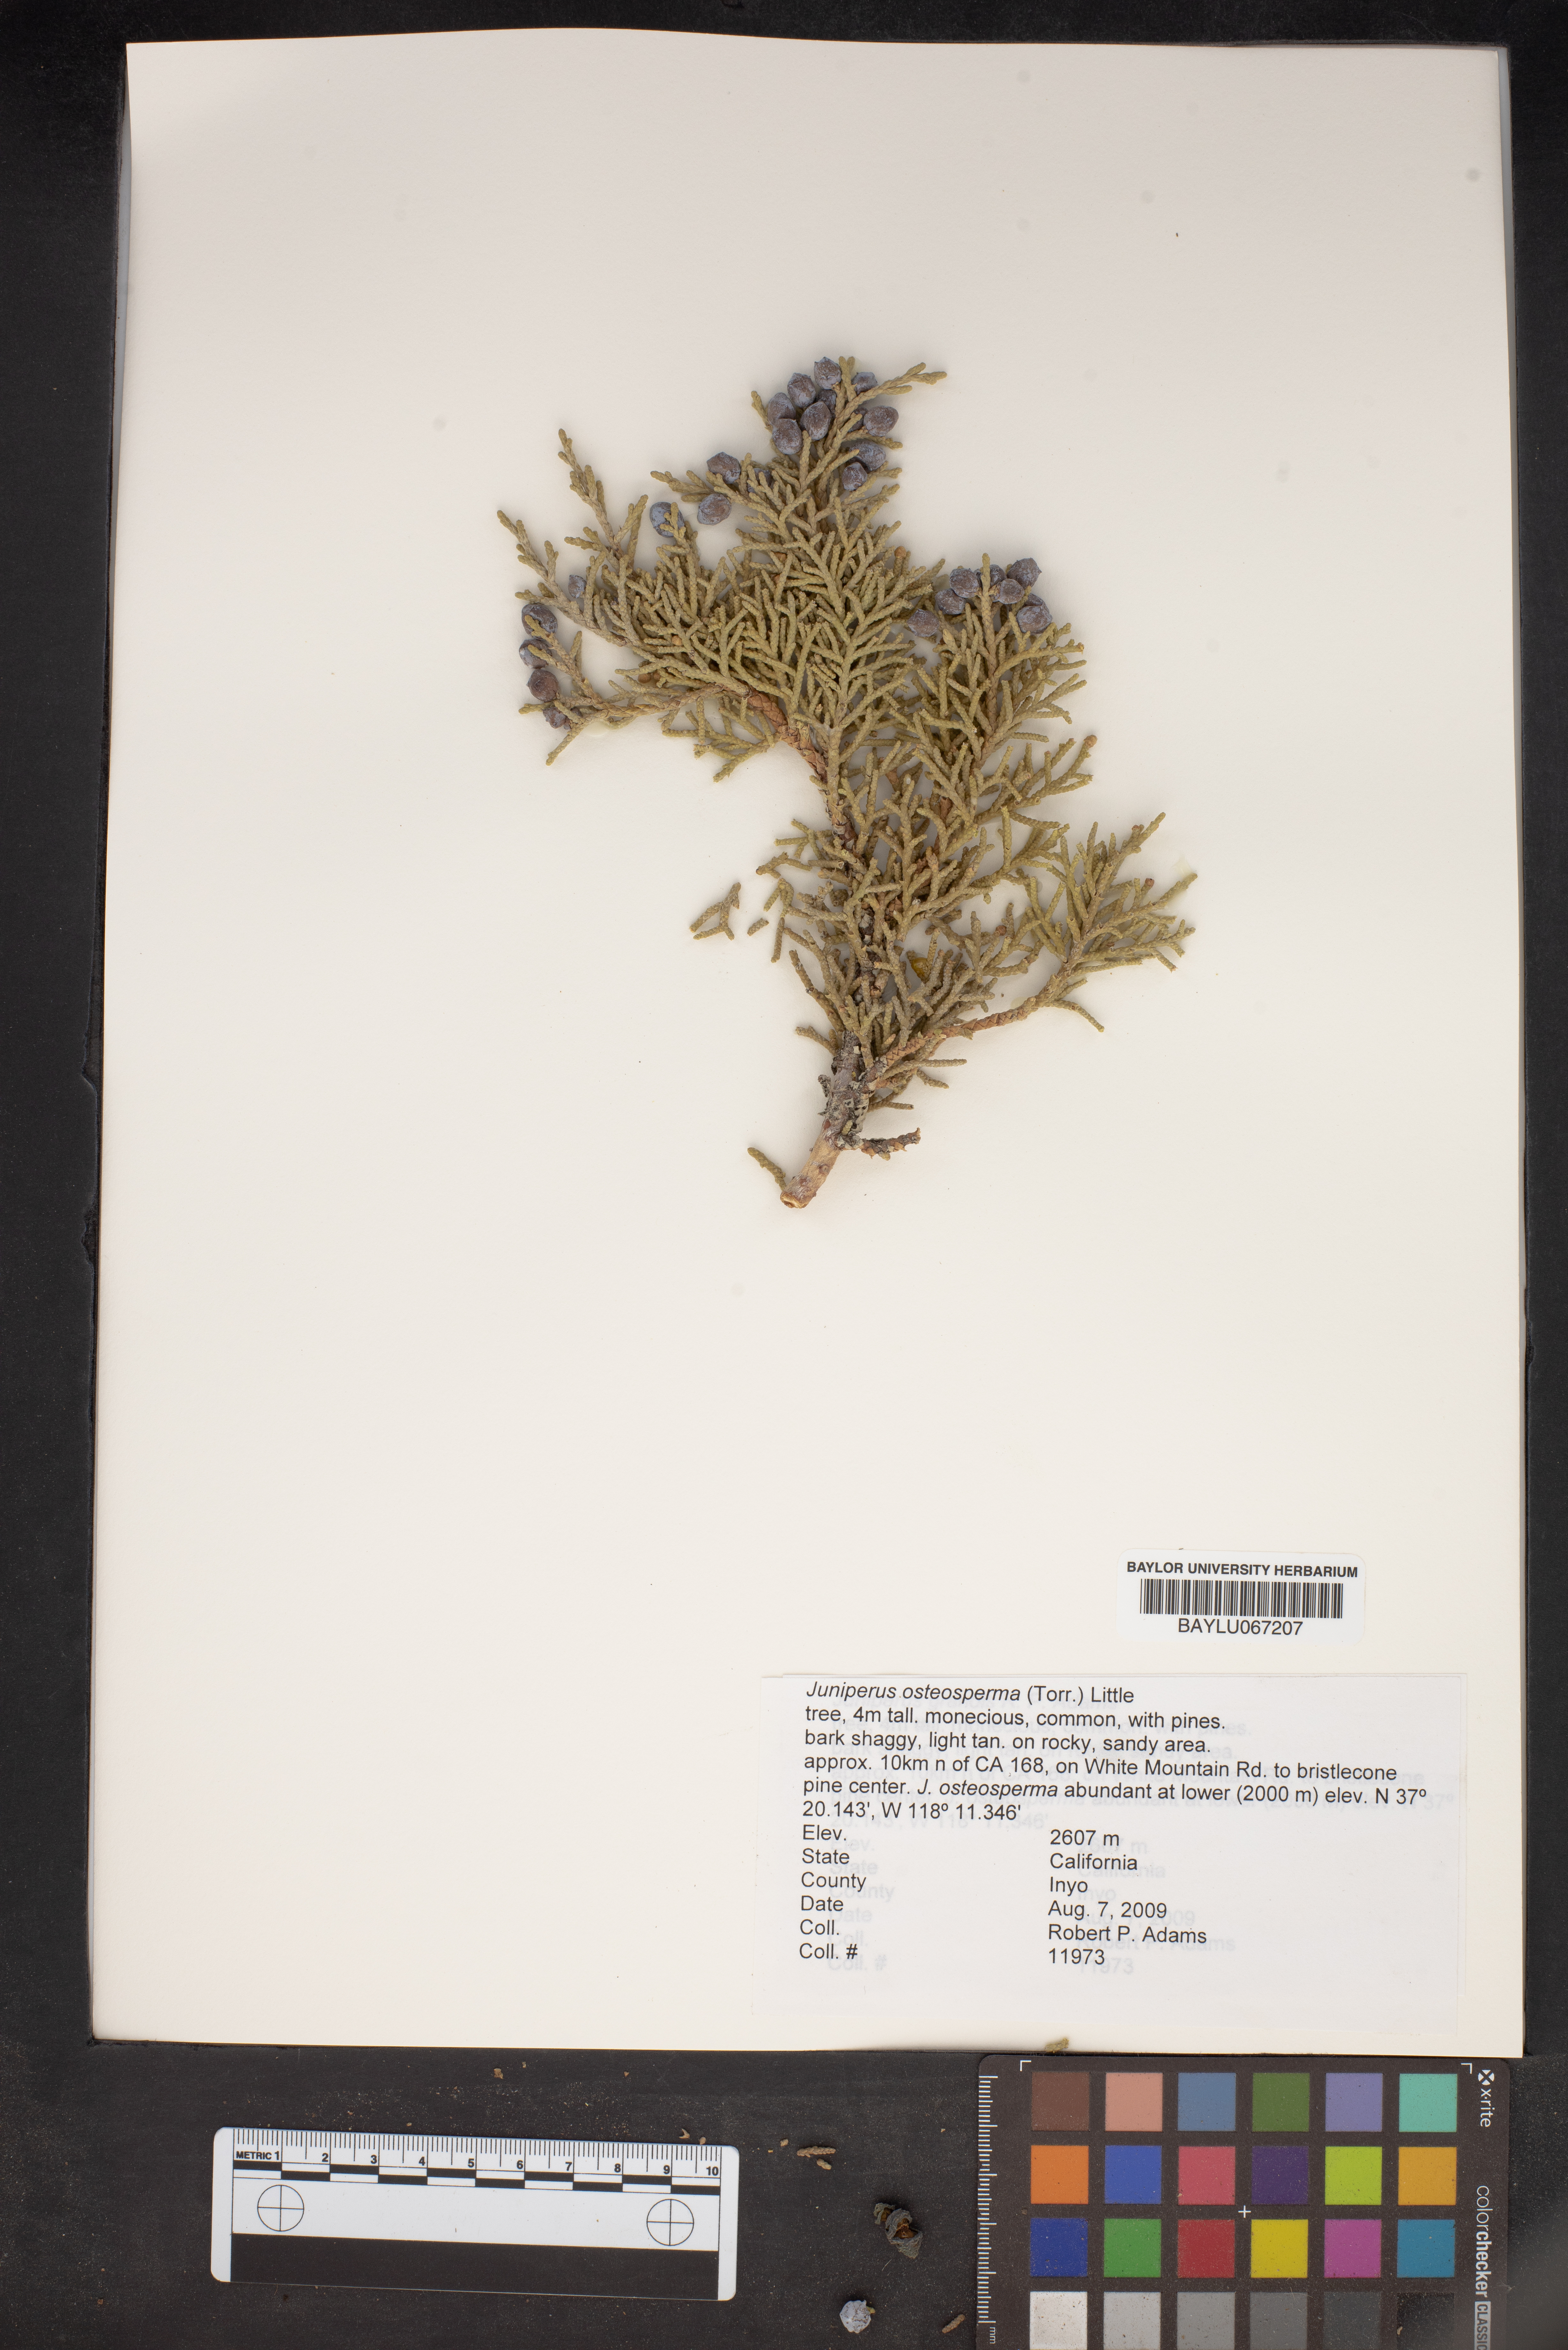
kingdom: Plantae
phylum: Tracheophyta
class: Pinopsida
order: Pinales
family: Cupressaceae
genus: Juniperus
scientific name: Juniperus osteosperma
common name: Utah juniper
